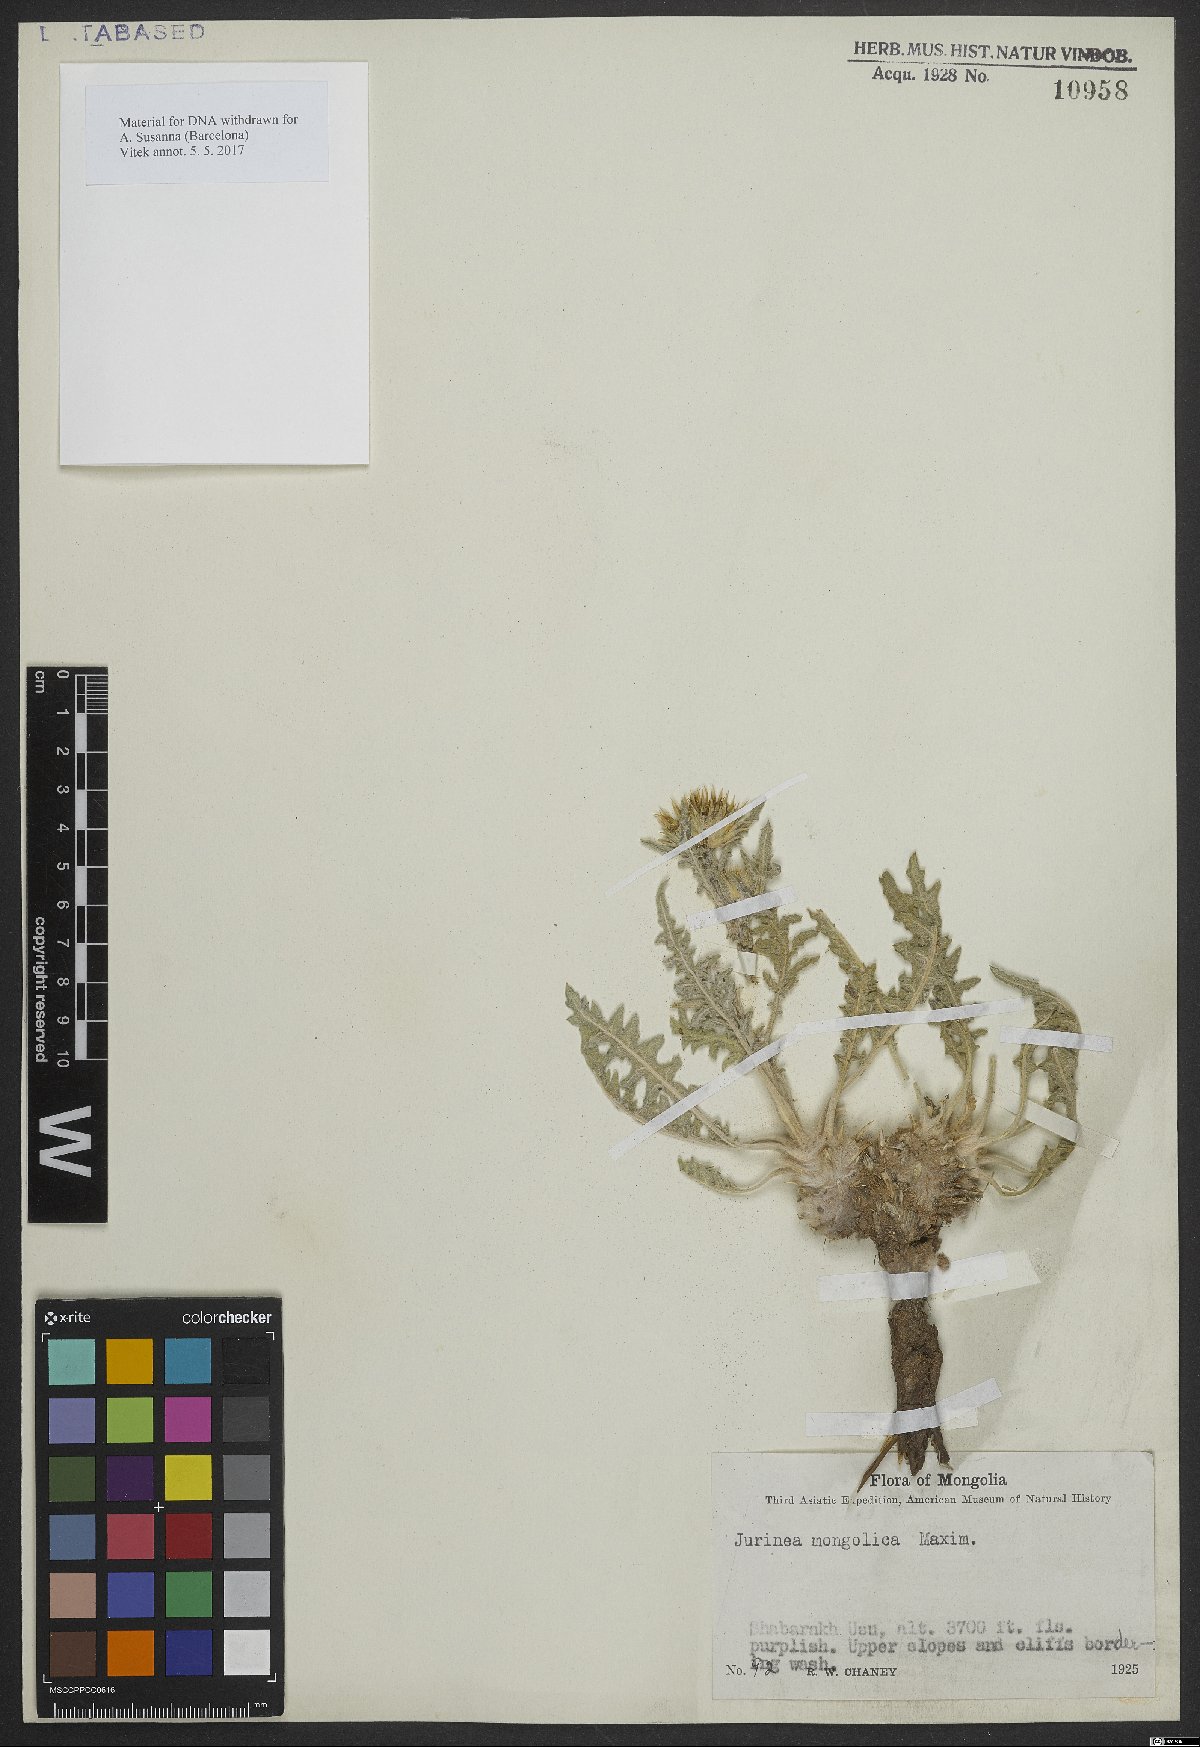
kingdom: Plantae
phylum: Tracheophyta
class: Magnoliopsida
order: Asterales
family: Asteraceae
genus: Jurinea
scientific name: Jurinea mongolica
